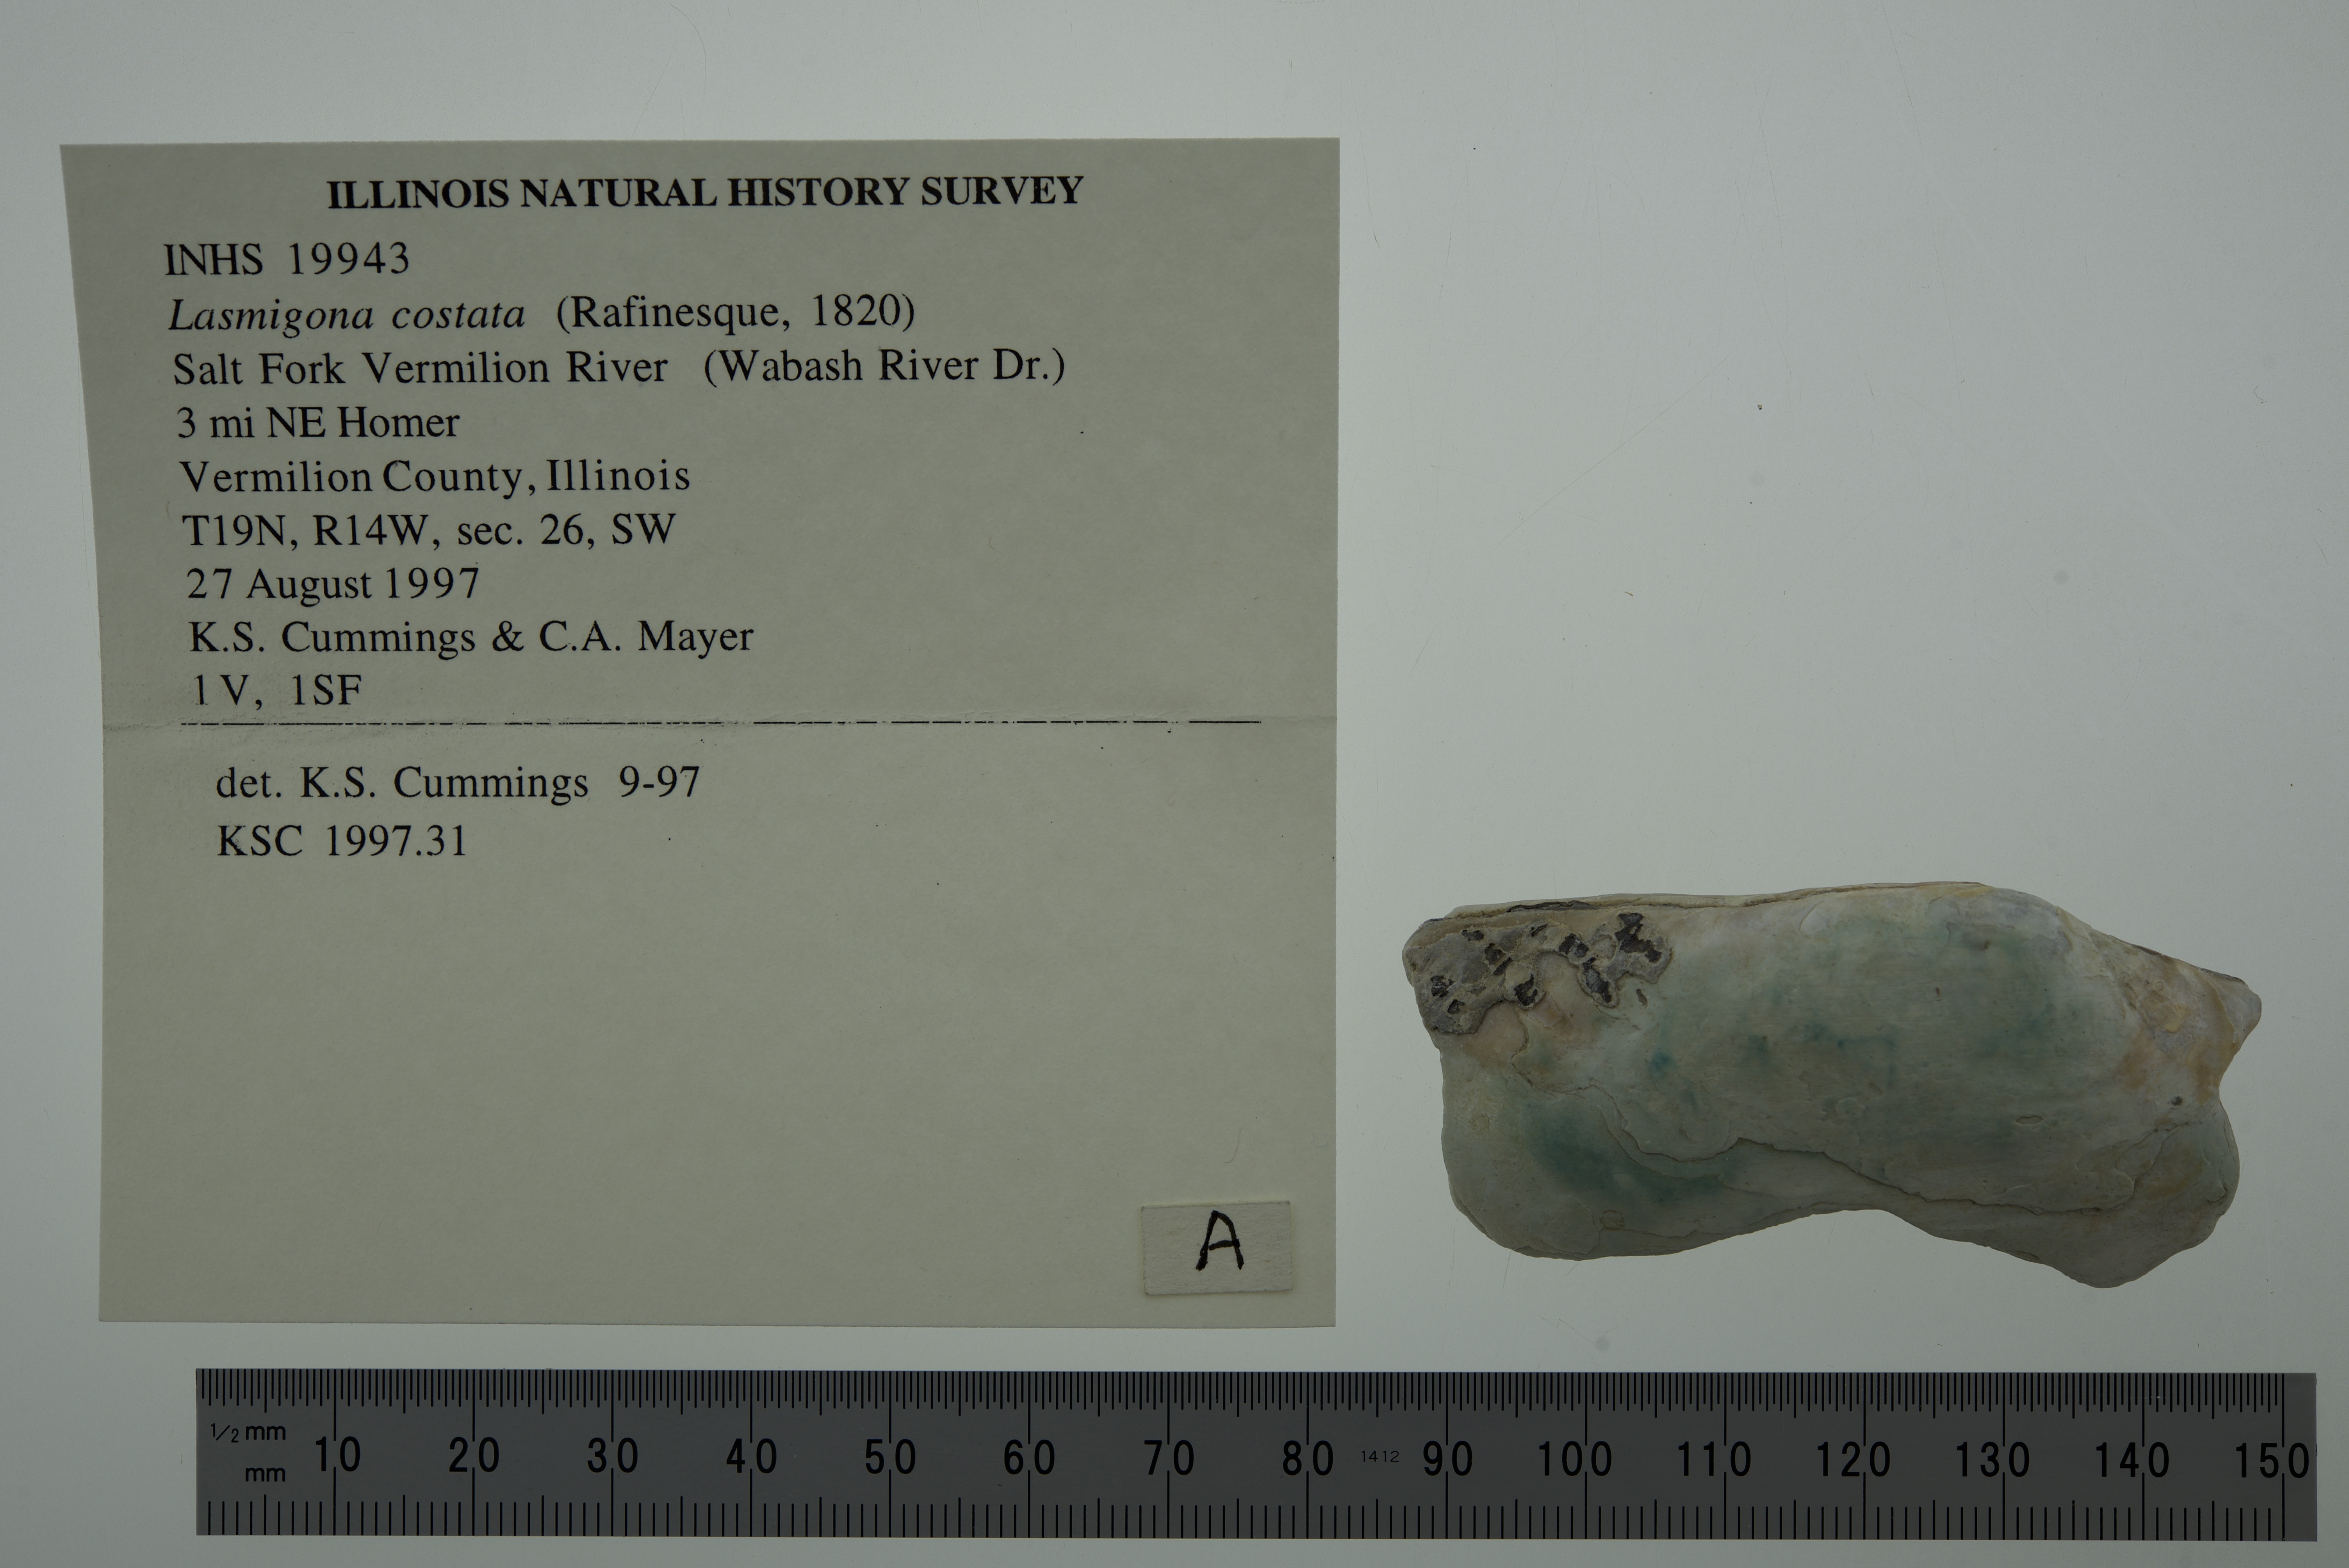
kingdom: Animalia
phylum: Mollusca
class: Bivalvia
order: Unionida
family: Unionidae
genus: Lasmigona
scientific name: Lasmigona costata
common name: Flutedshell
